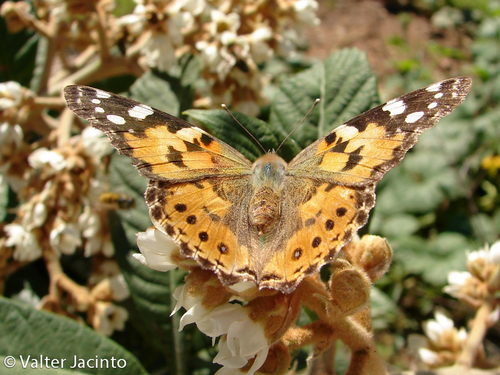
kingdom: Animalia
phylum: Arthropoda
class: Insecta
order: Lepidoptera
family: Nymphalidae
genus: Vanessa
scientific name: Vanessa cardui
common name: Painted lady
